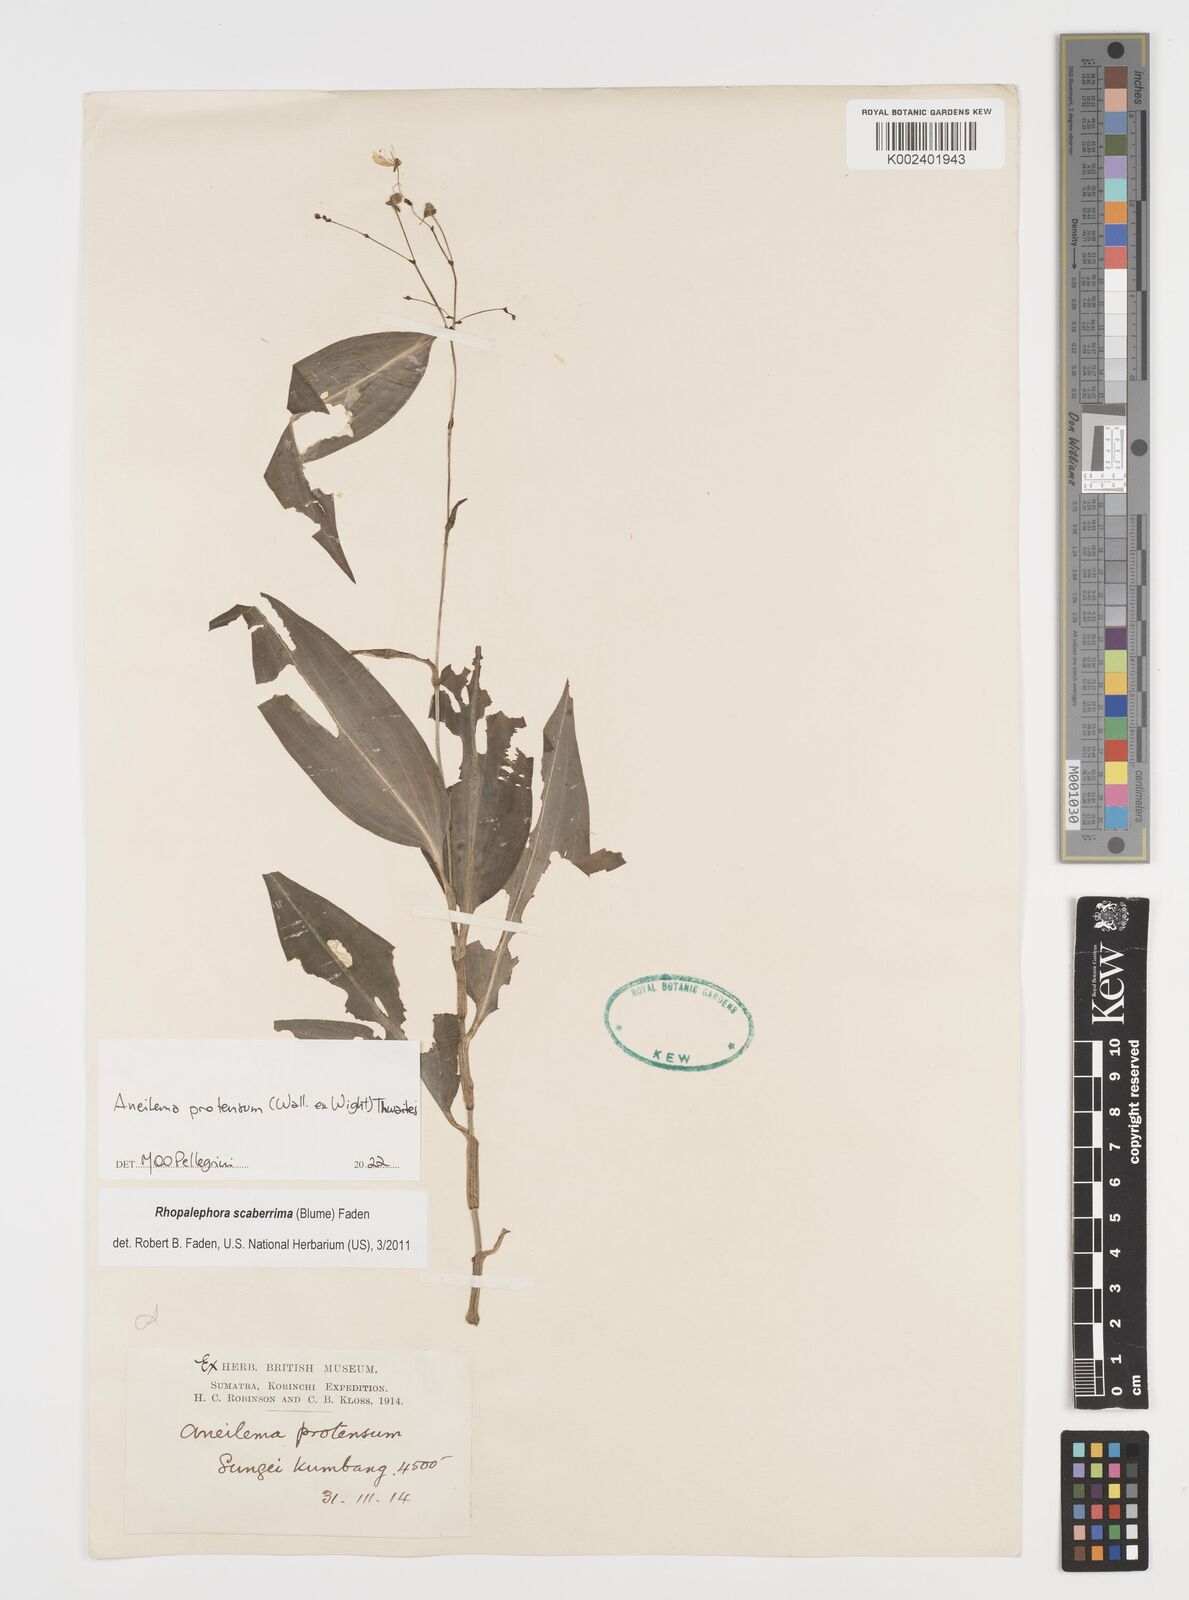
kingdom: Plantae
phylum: Tracheophyta
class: Liliopsida
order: Commelinales
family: Commelinaceae
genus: Rhopalephora
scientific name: Rhopalephora
